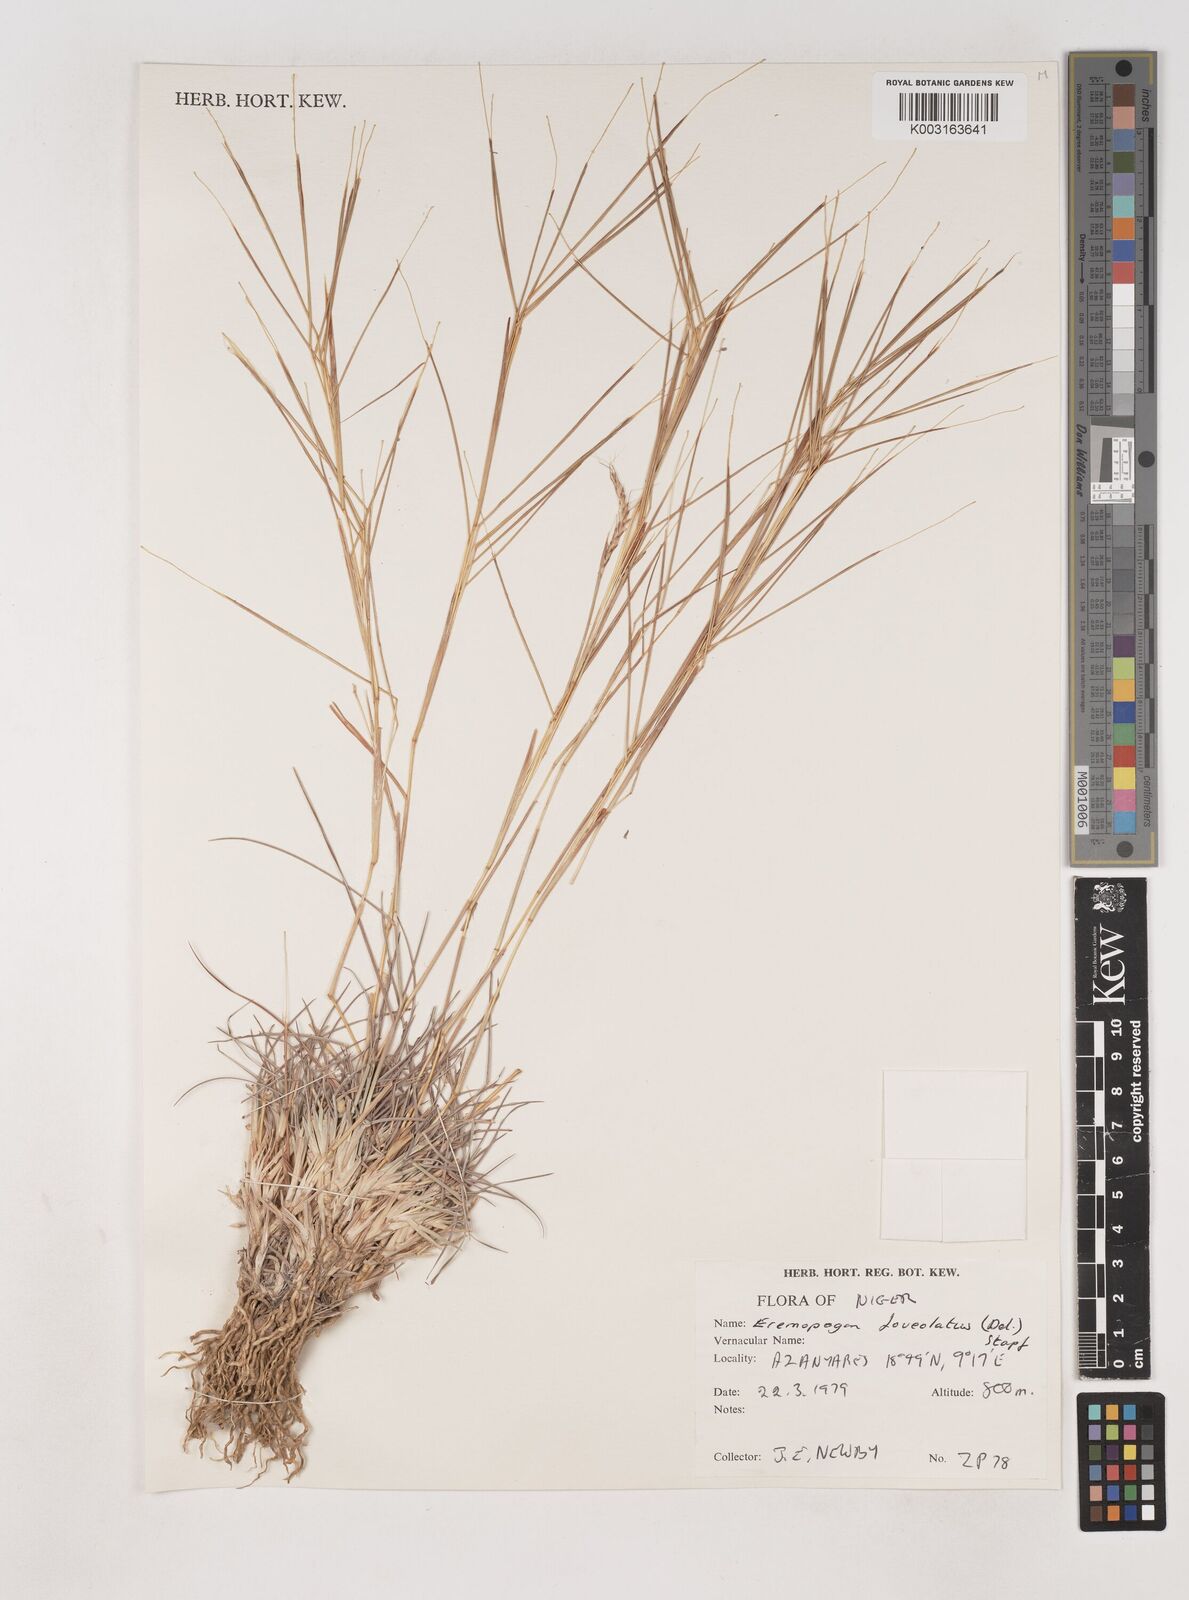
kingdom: Plantae
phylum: Tracheophyta
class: Liliopsida
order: Poales
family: Poaceae
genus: Dichanthium
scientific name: Dichanthium foveolatum
